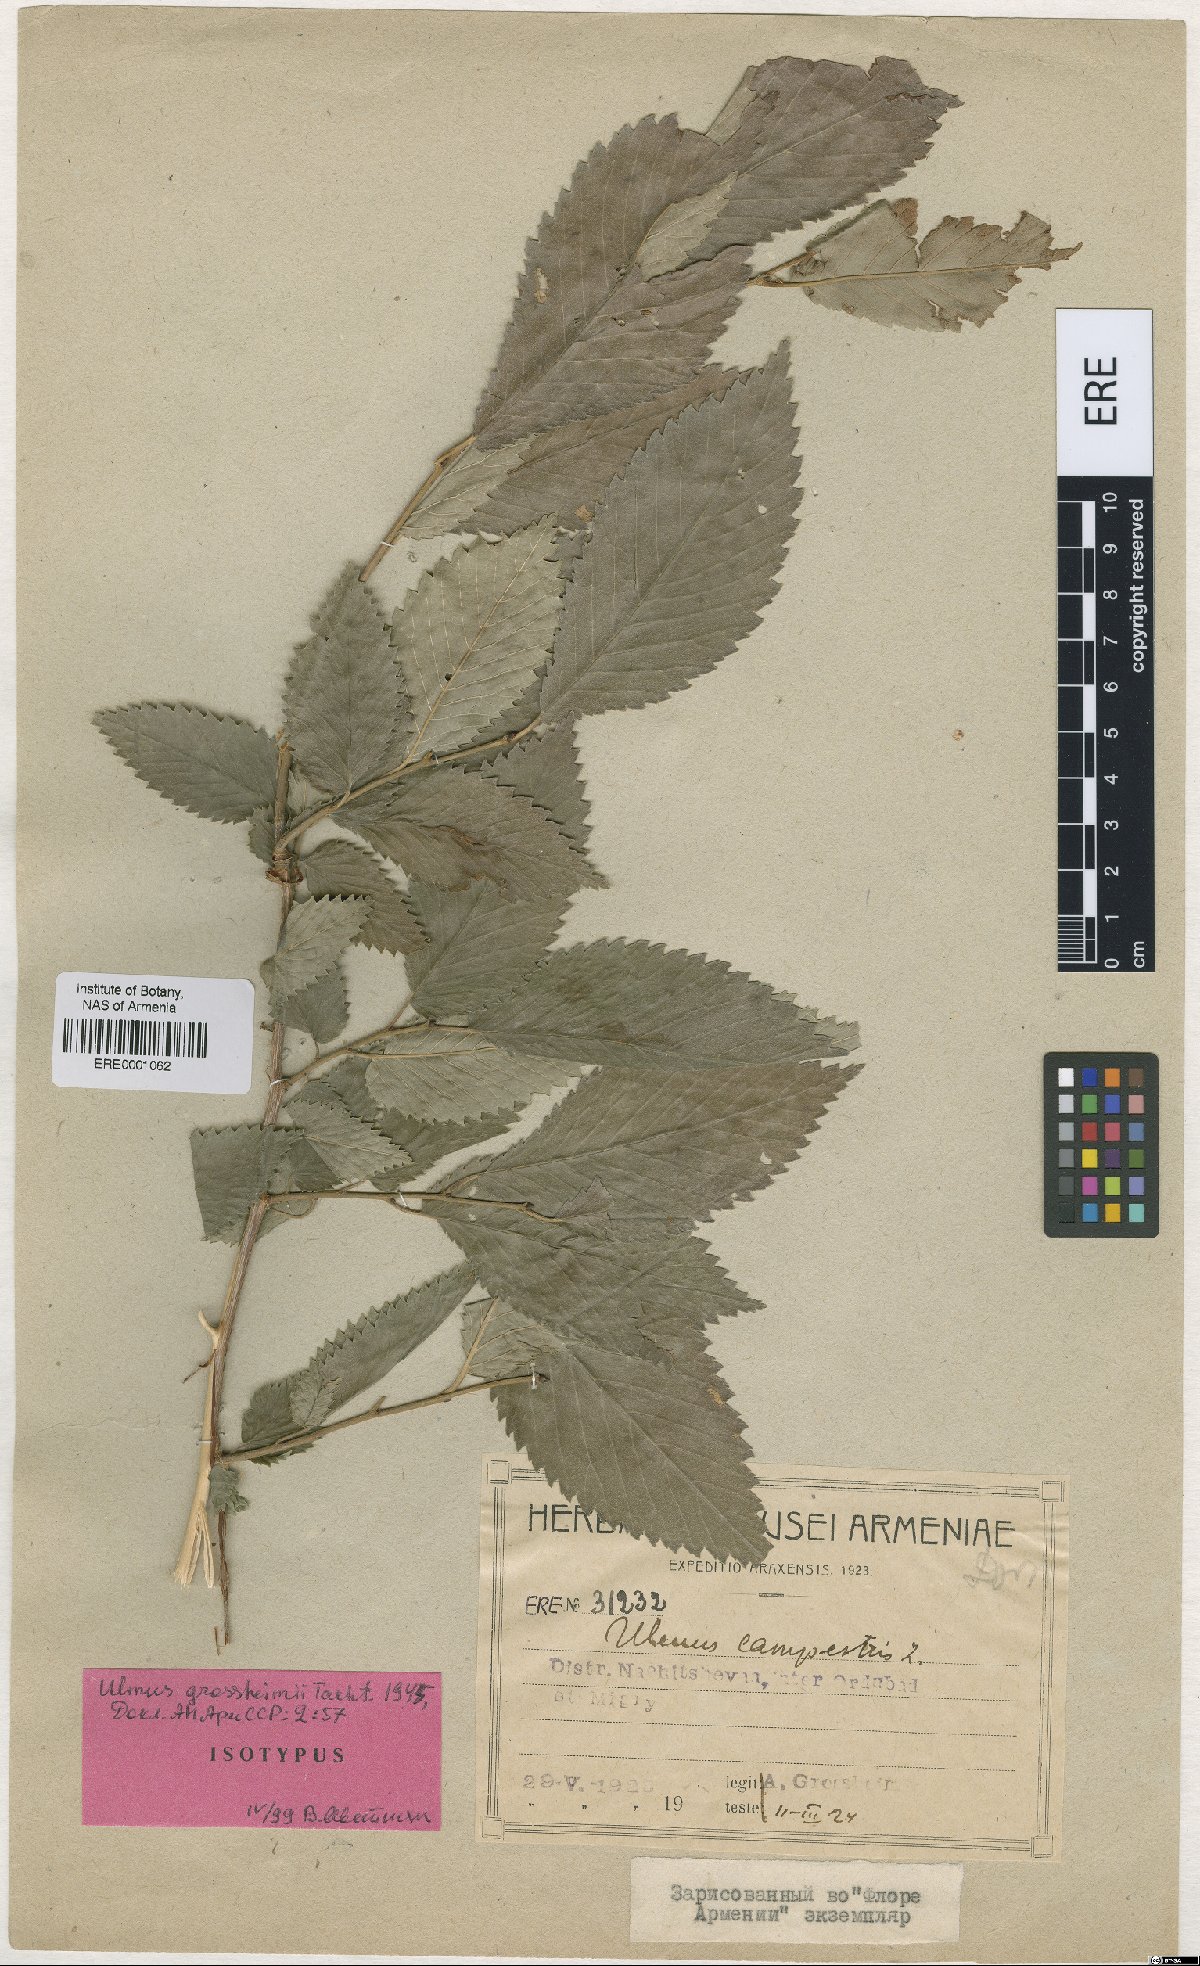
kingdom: Plantae
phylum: Tracheophyta
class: Magnoliopsida
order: Rosales
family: Ulmaceae
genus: Ulmus
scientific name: Ulmus minor
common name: Small-leaved elm
